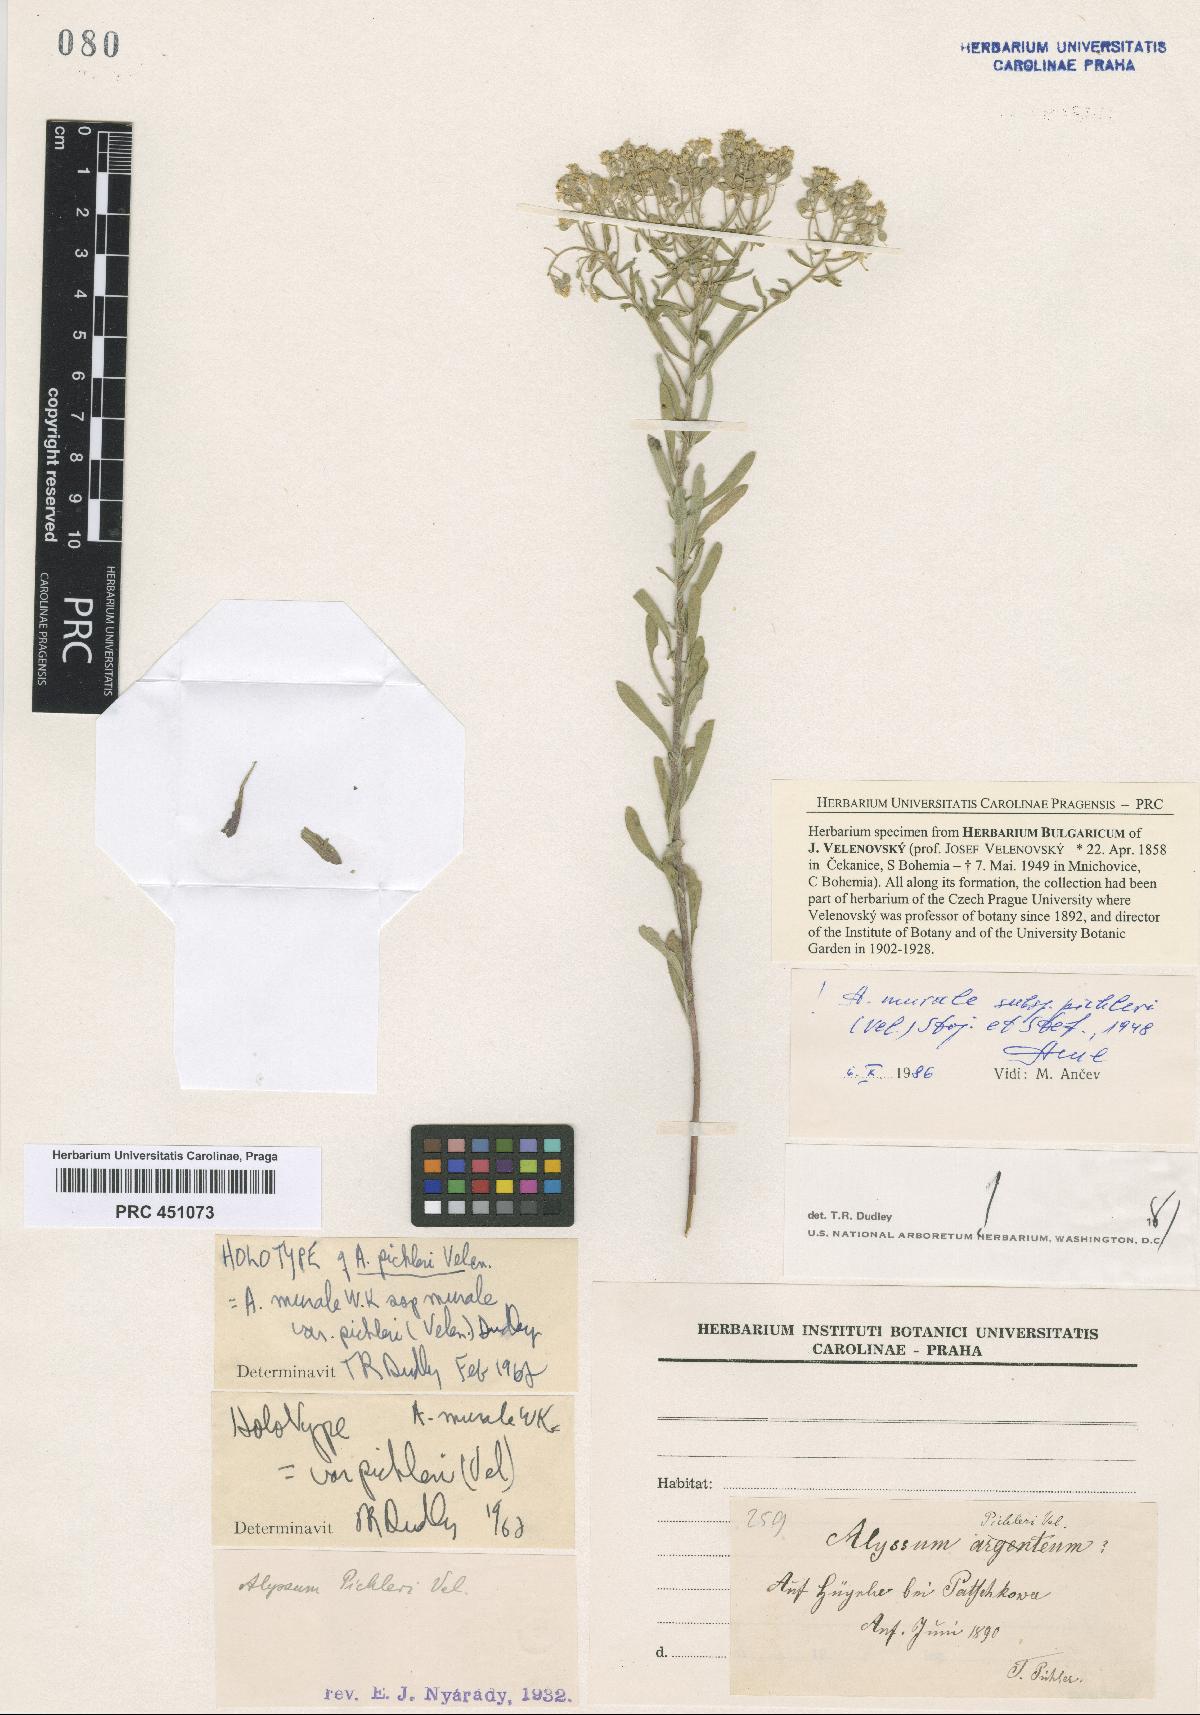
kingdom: Plantae
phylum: Tracheophyta
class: Magnoliopsida
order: Brassicales
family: Brassicaceae
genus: Odontarrhena
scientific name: Odontarrhena muralis
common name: Rock alyssum
